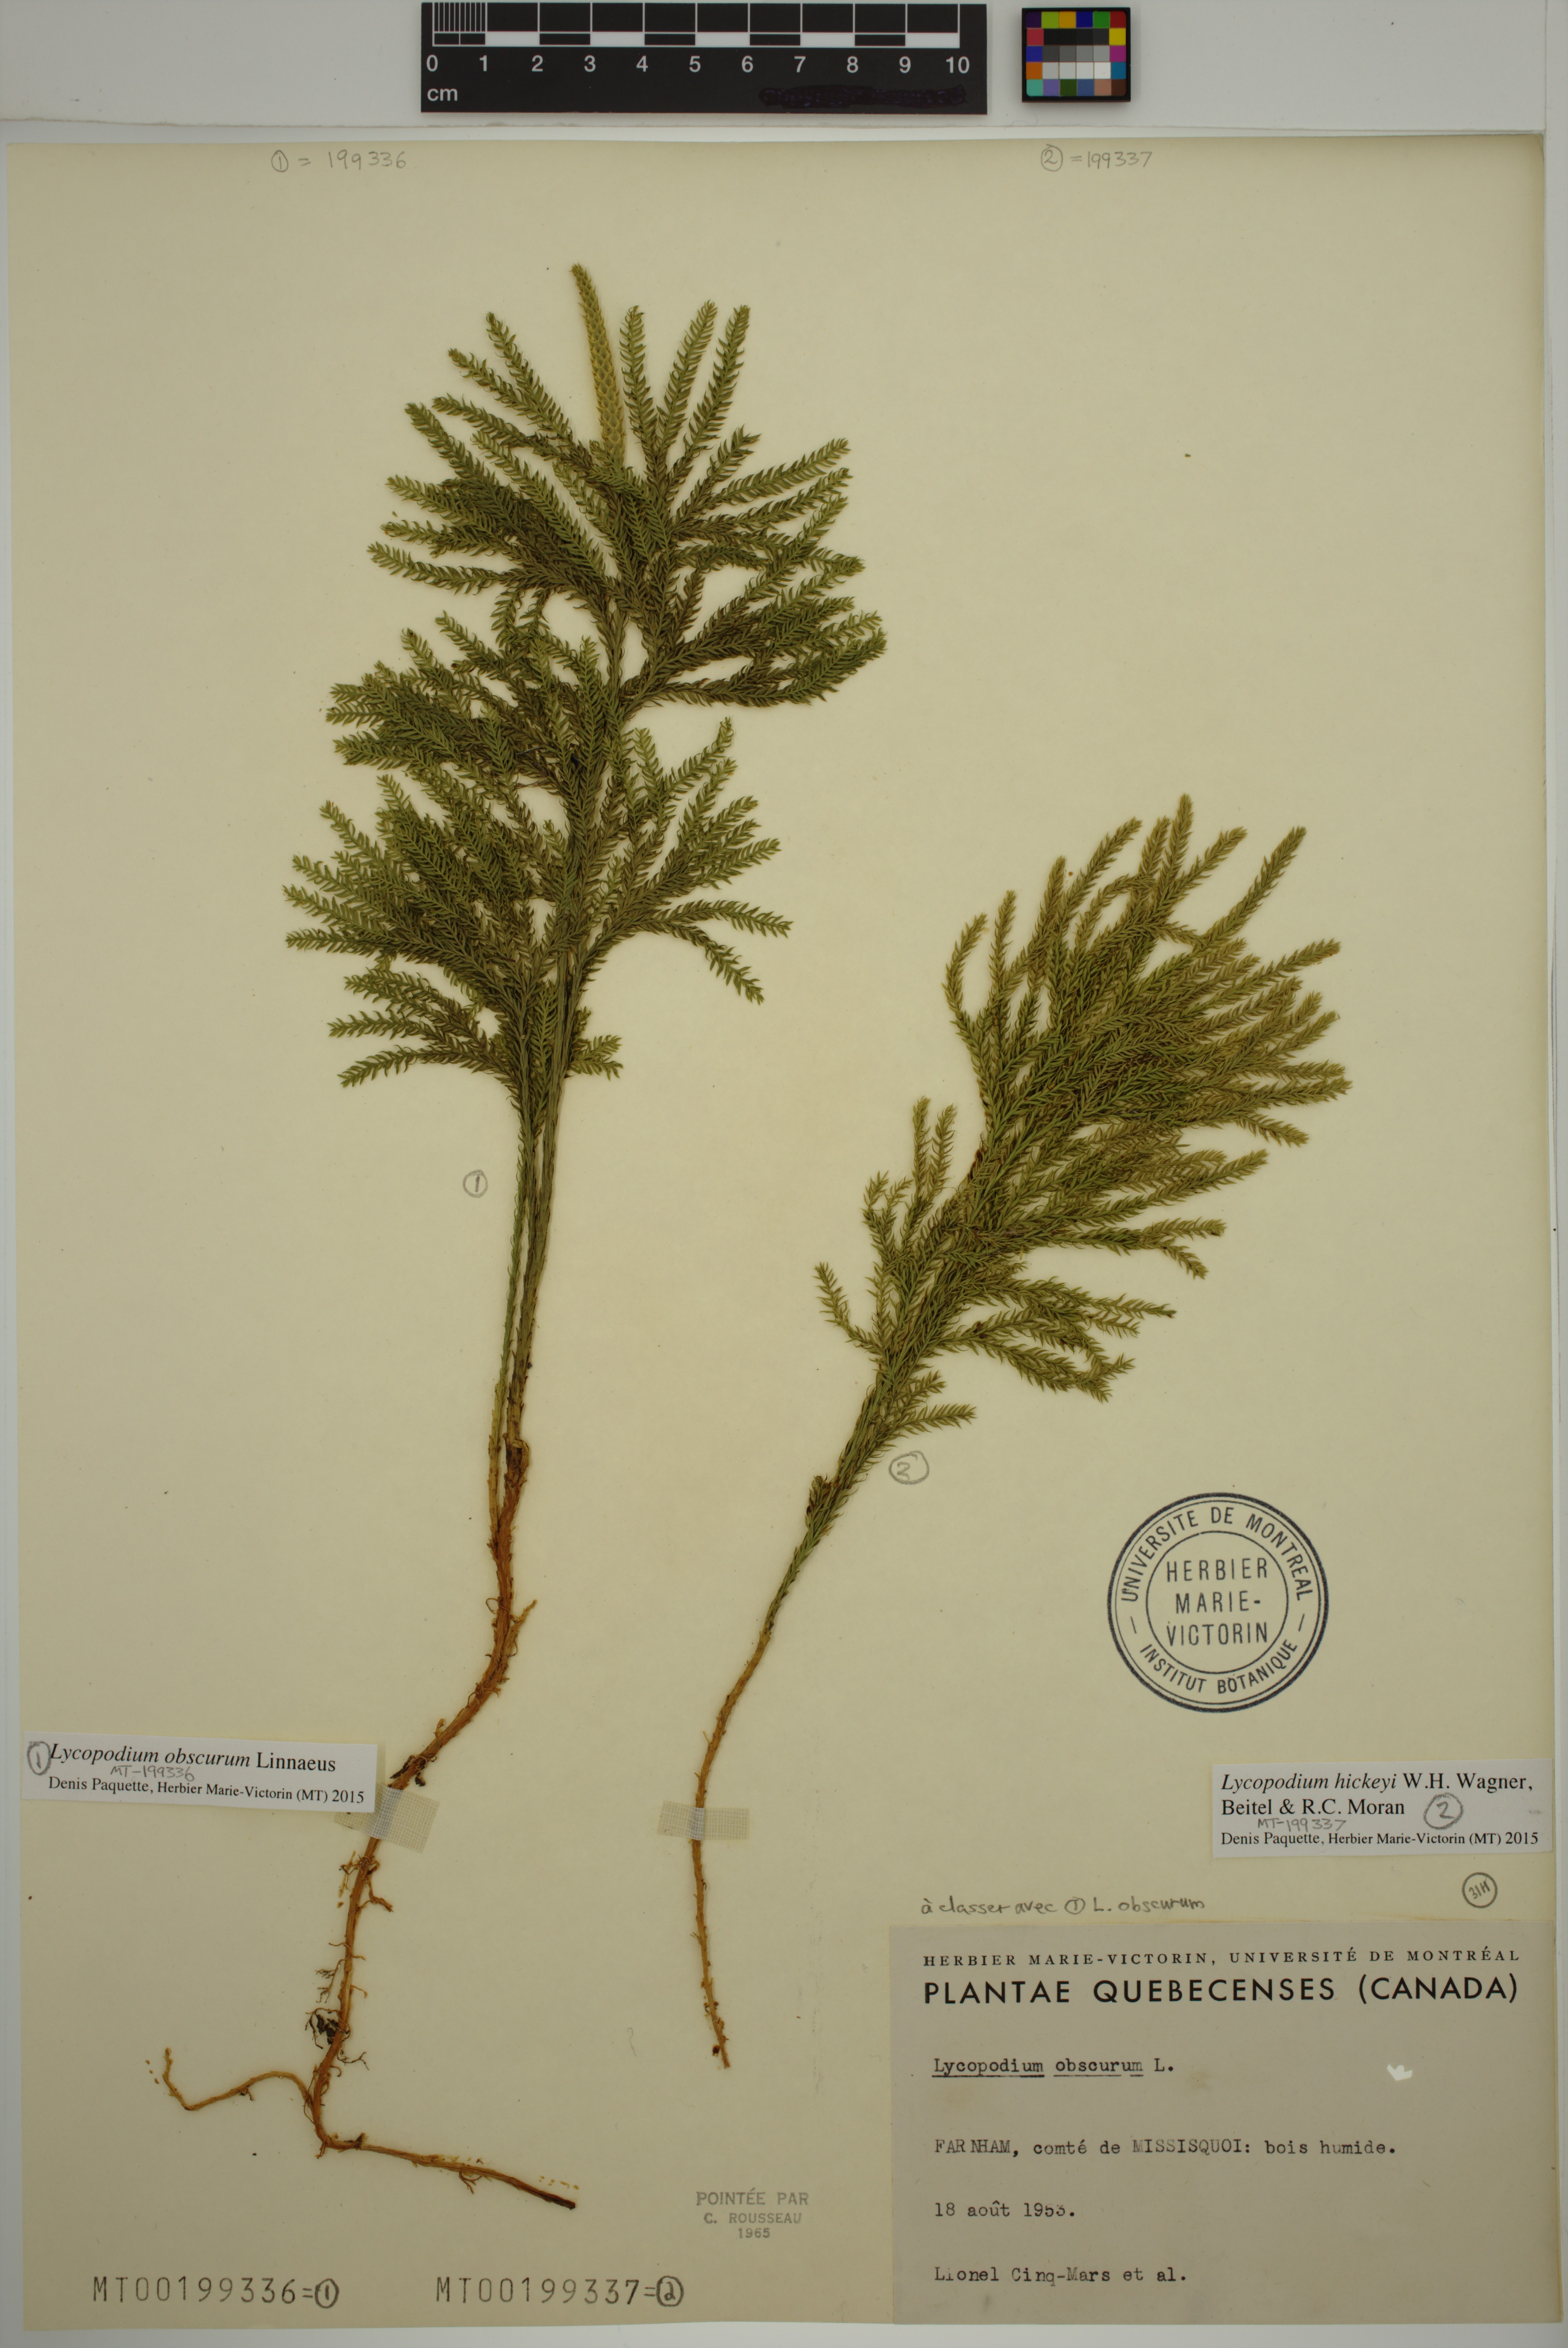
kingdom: Plantae
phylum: Tracheophyta
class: Lycopodiopsida
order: Lycopodiales
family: Lycopodiaceae
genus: Dendrolycopodium
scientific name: Dendrolycopodium obscurum
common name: Common ground-pine
